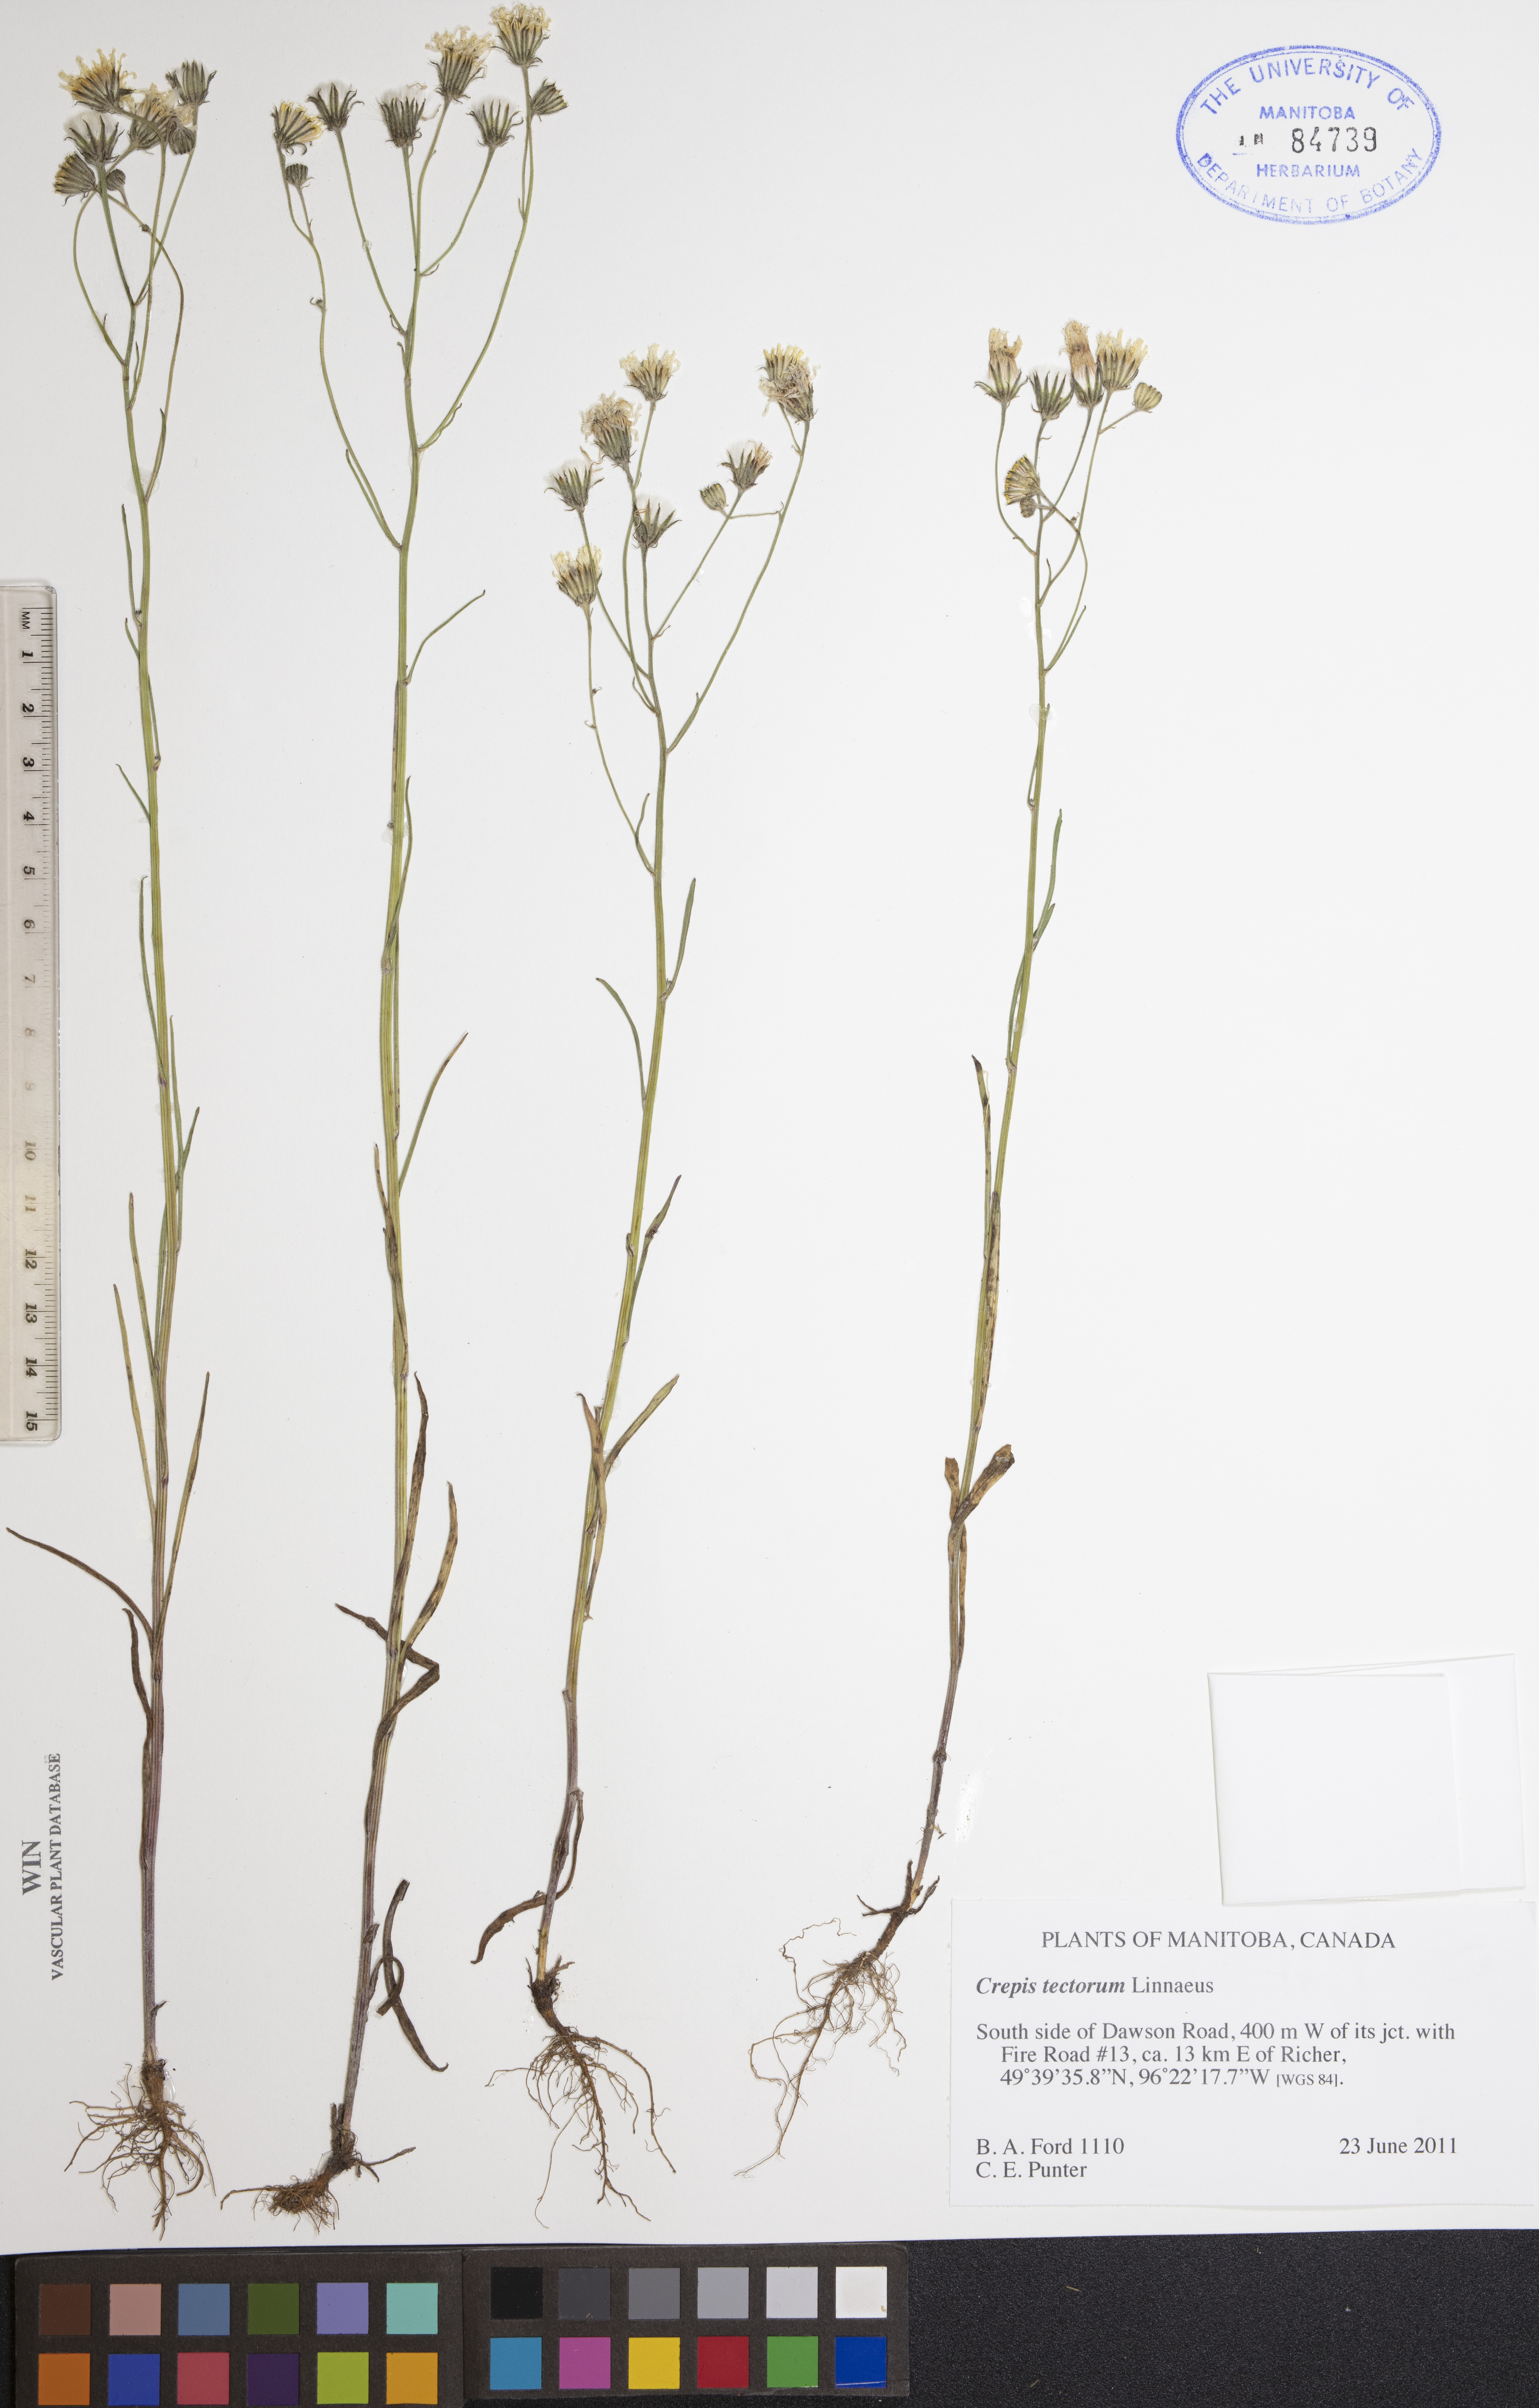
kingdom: Plantae
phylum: Tracheophyta
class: Magnoliopsida
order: Asterales
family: Asteraceae
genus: Crepis
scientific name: Crepis tectorum
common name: Narrow-leaved hawk's-beard
